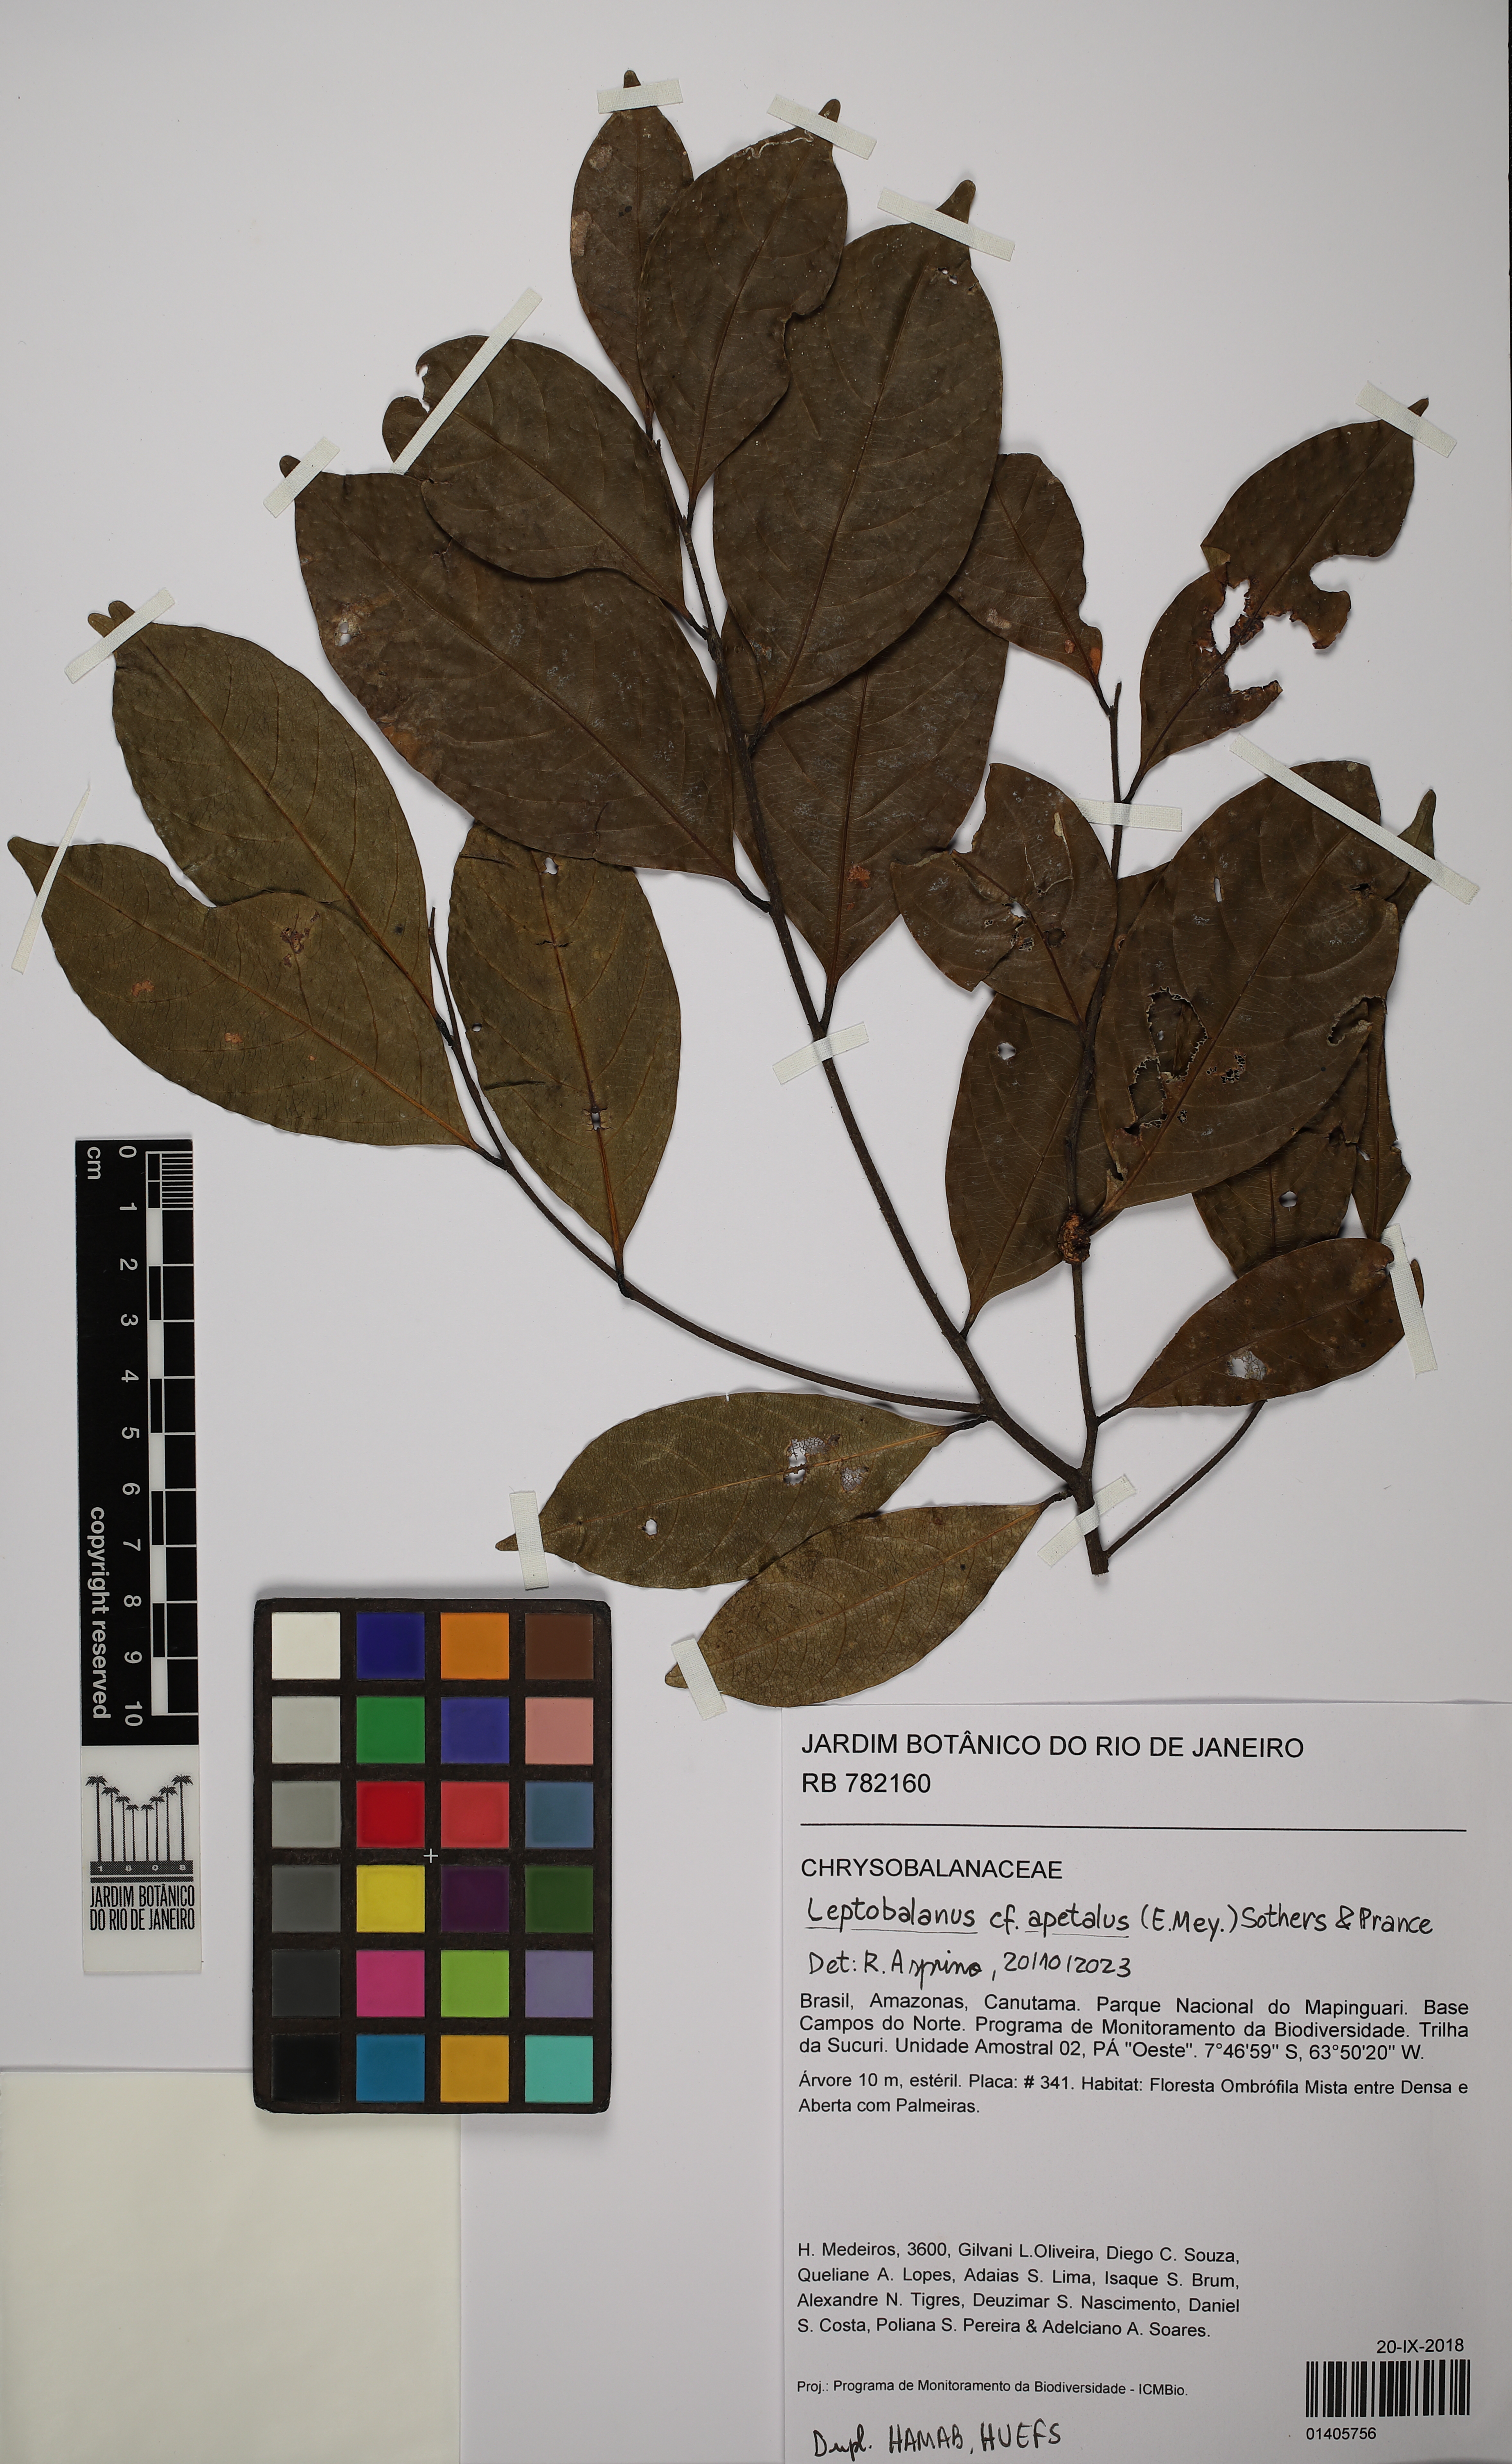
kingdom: Plantae
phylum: Tracheophyta
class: Magnoliopsida
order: Malpighiales
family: Chrysobalanaceae
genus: Leptobalanus
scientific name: Leptobalanus apetalus
